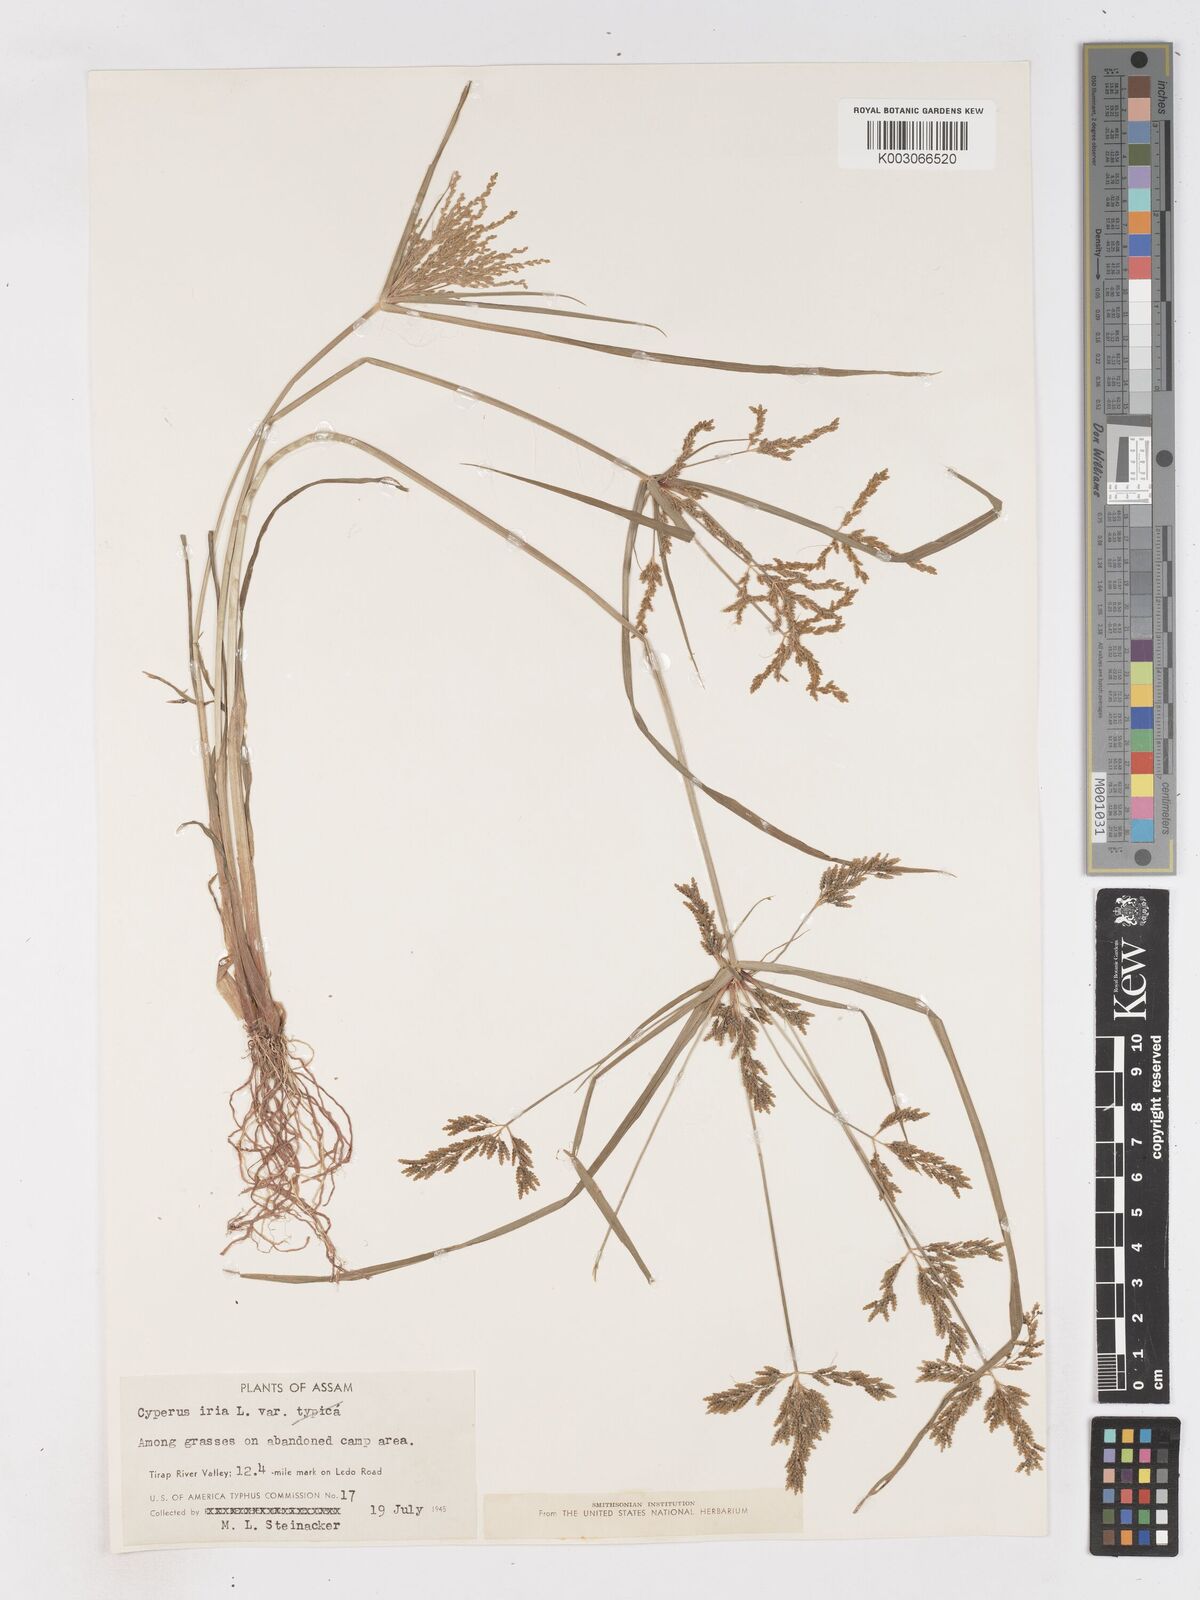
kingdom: Plantae
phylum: Tracheophyta
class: Liliopsida
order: Poales
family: Cyperaceae
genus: Cyperus
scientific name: Cyperus iria
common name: Ricefield flatsedge
